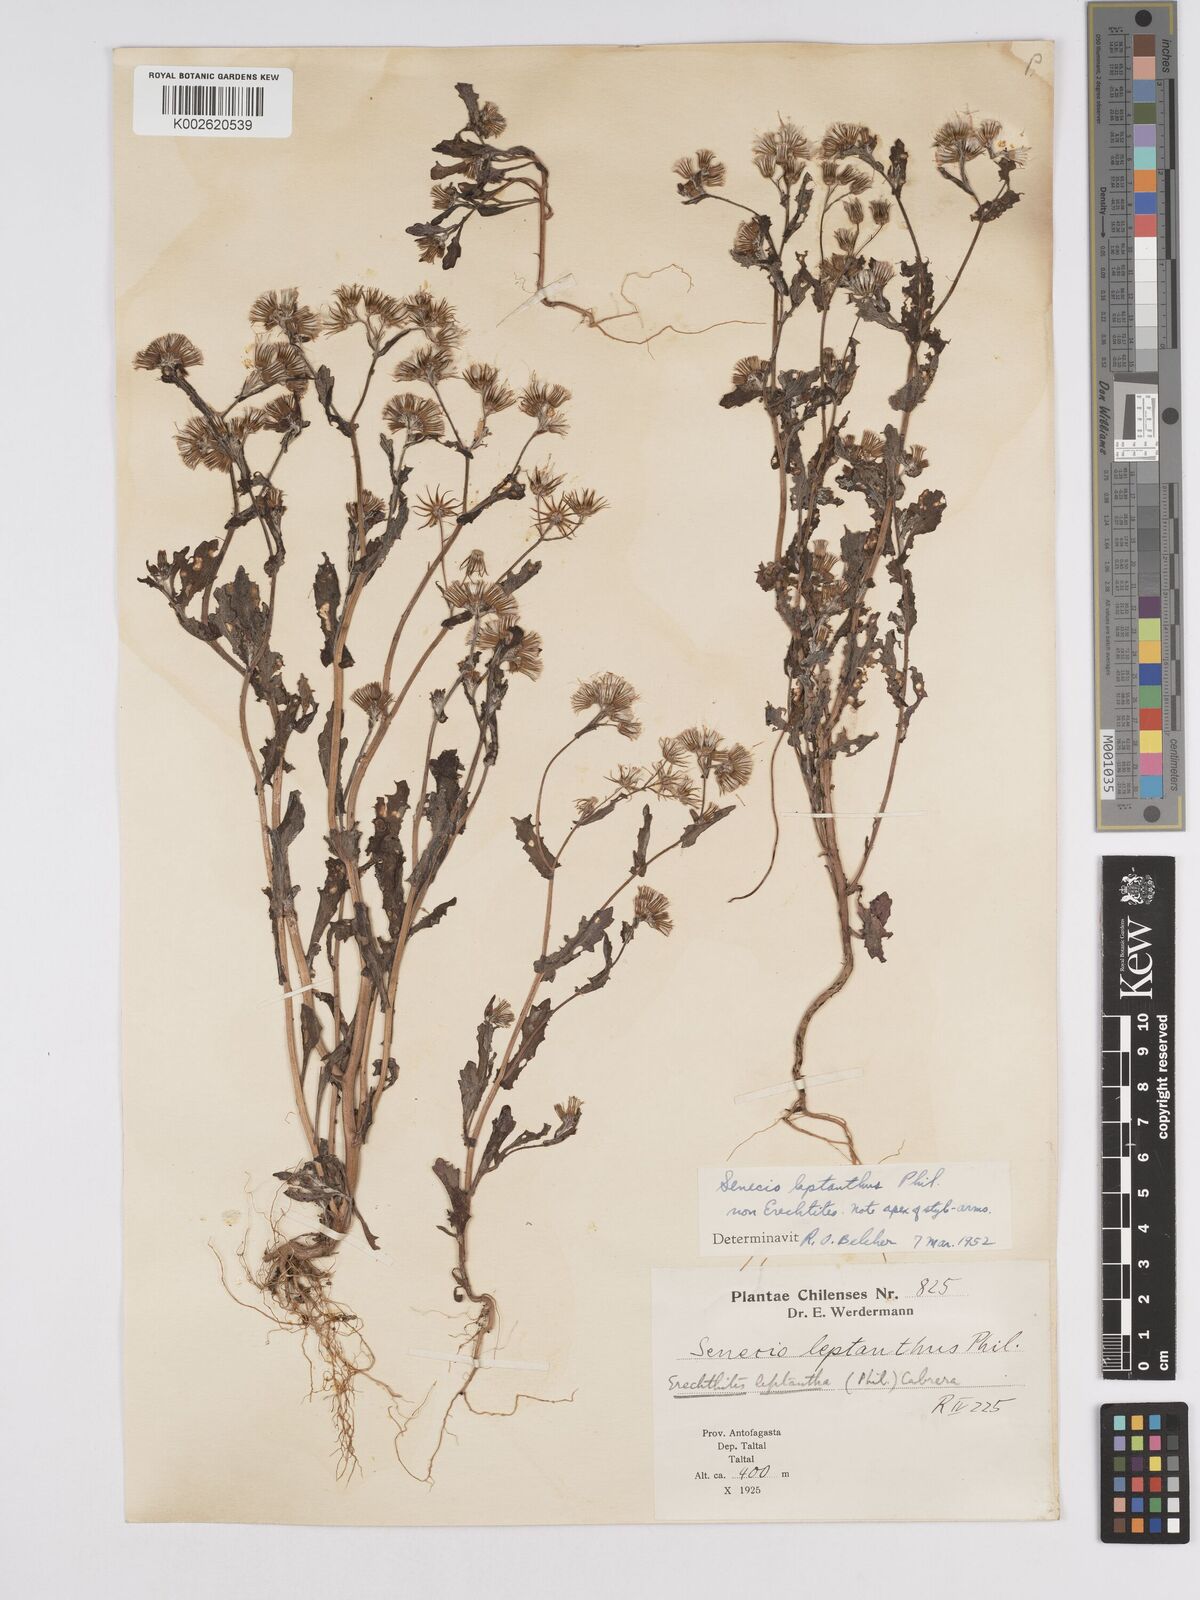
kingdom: Plantae
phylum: Tracheophyta
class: Magnoliopsida
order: Asterales
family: Asteraceae
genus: Erechtites
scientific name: Erechtites leptanthus
